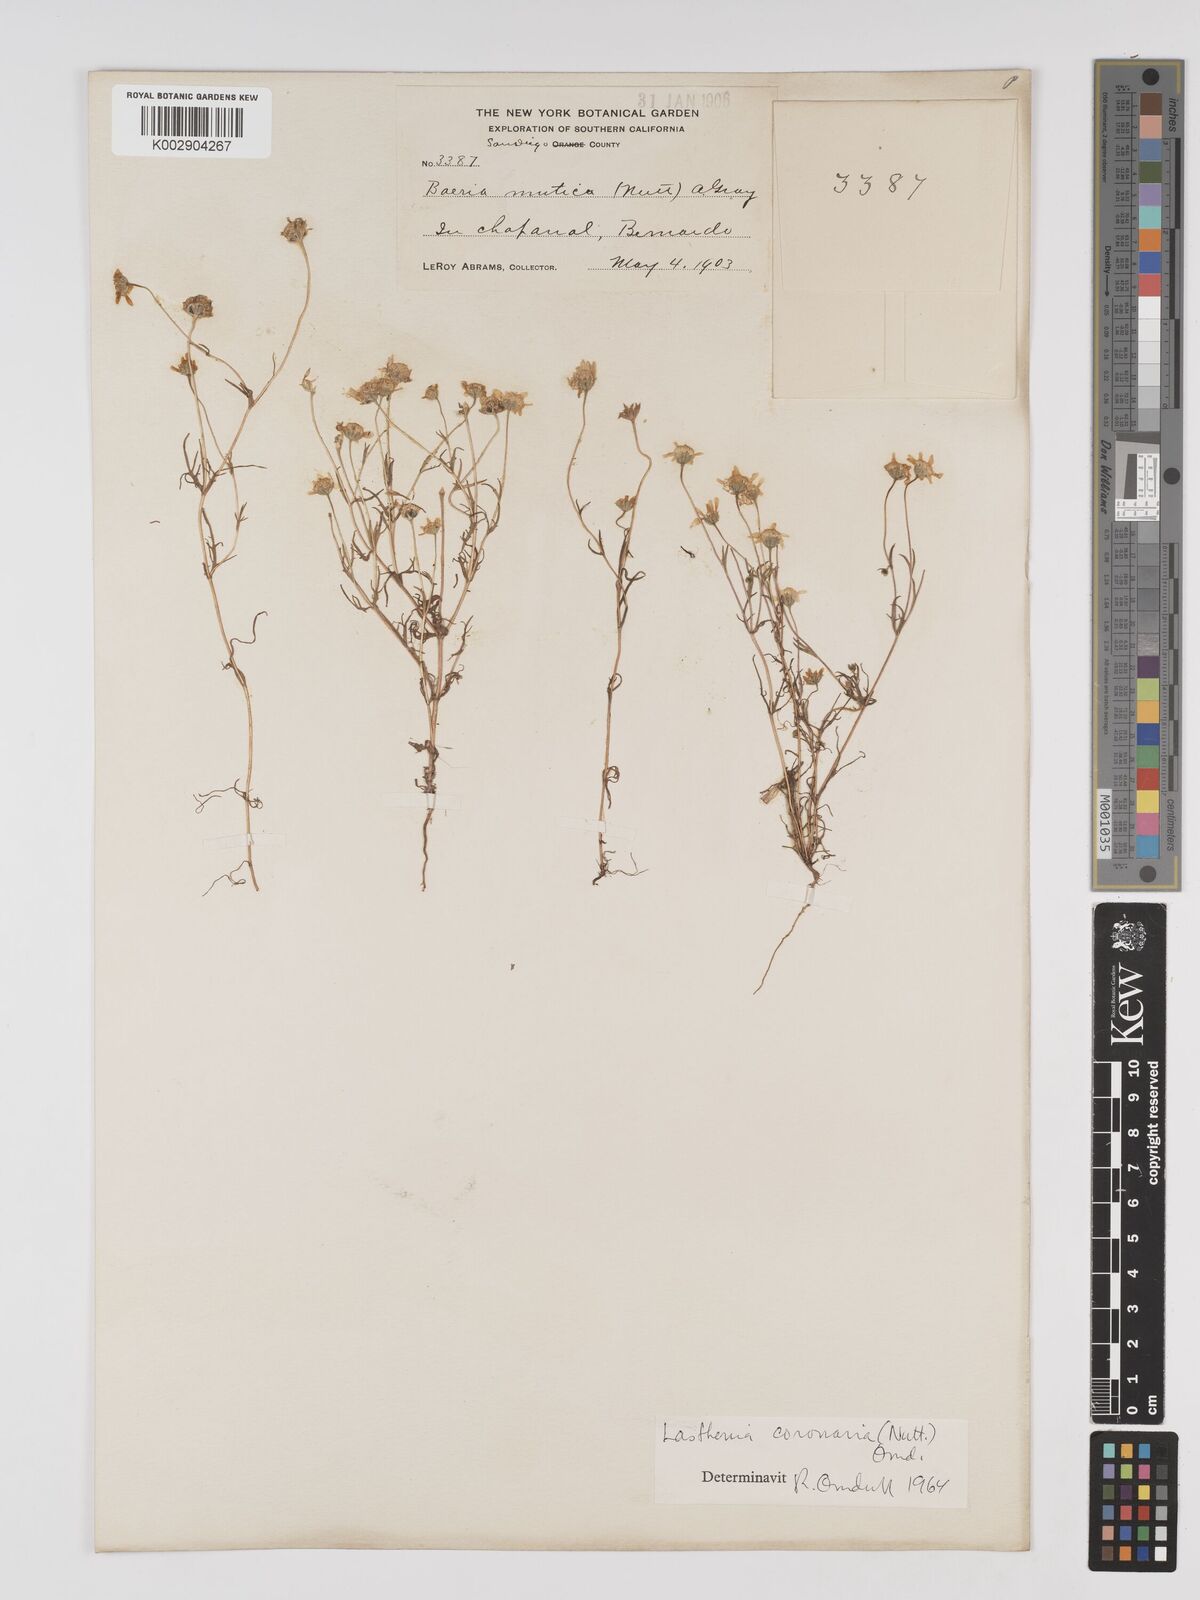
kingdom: Plantae
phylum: Tracheophyta
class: Magnoliopsida
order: Asterales
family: Asteraceae
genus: Lasthenia
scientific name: Lasthenia coronaria
